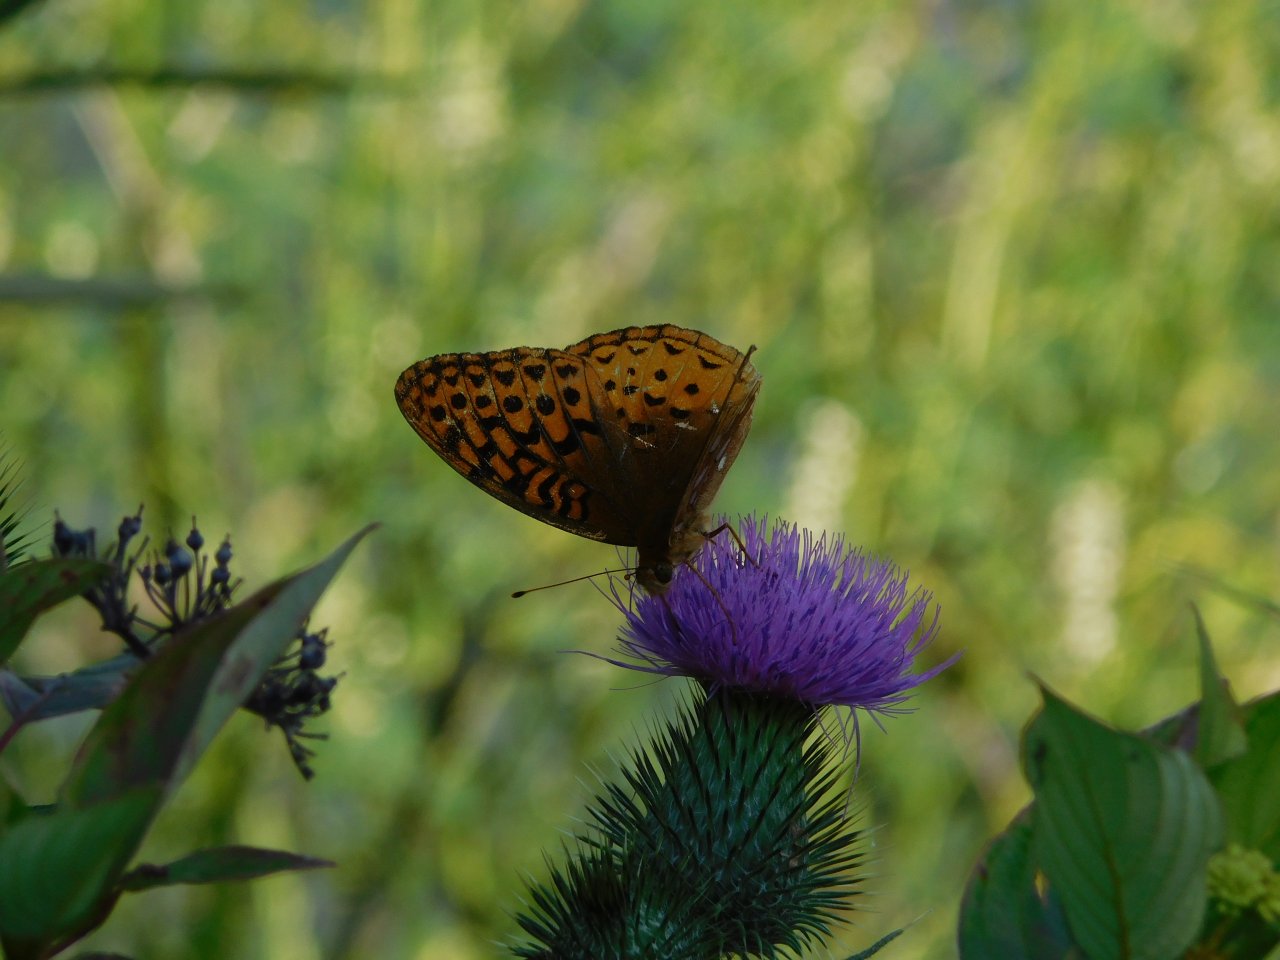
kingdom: Animalia
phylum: Arthropoda
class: Insecta
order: Lepidoptera
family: Nymphalidae
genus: Speyeria
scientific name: Speyeria cybele
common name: Great Spangled Fritillary
